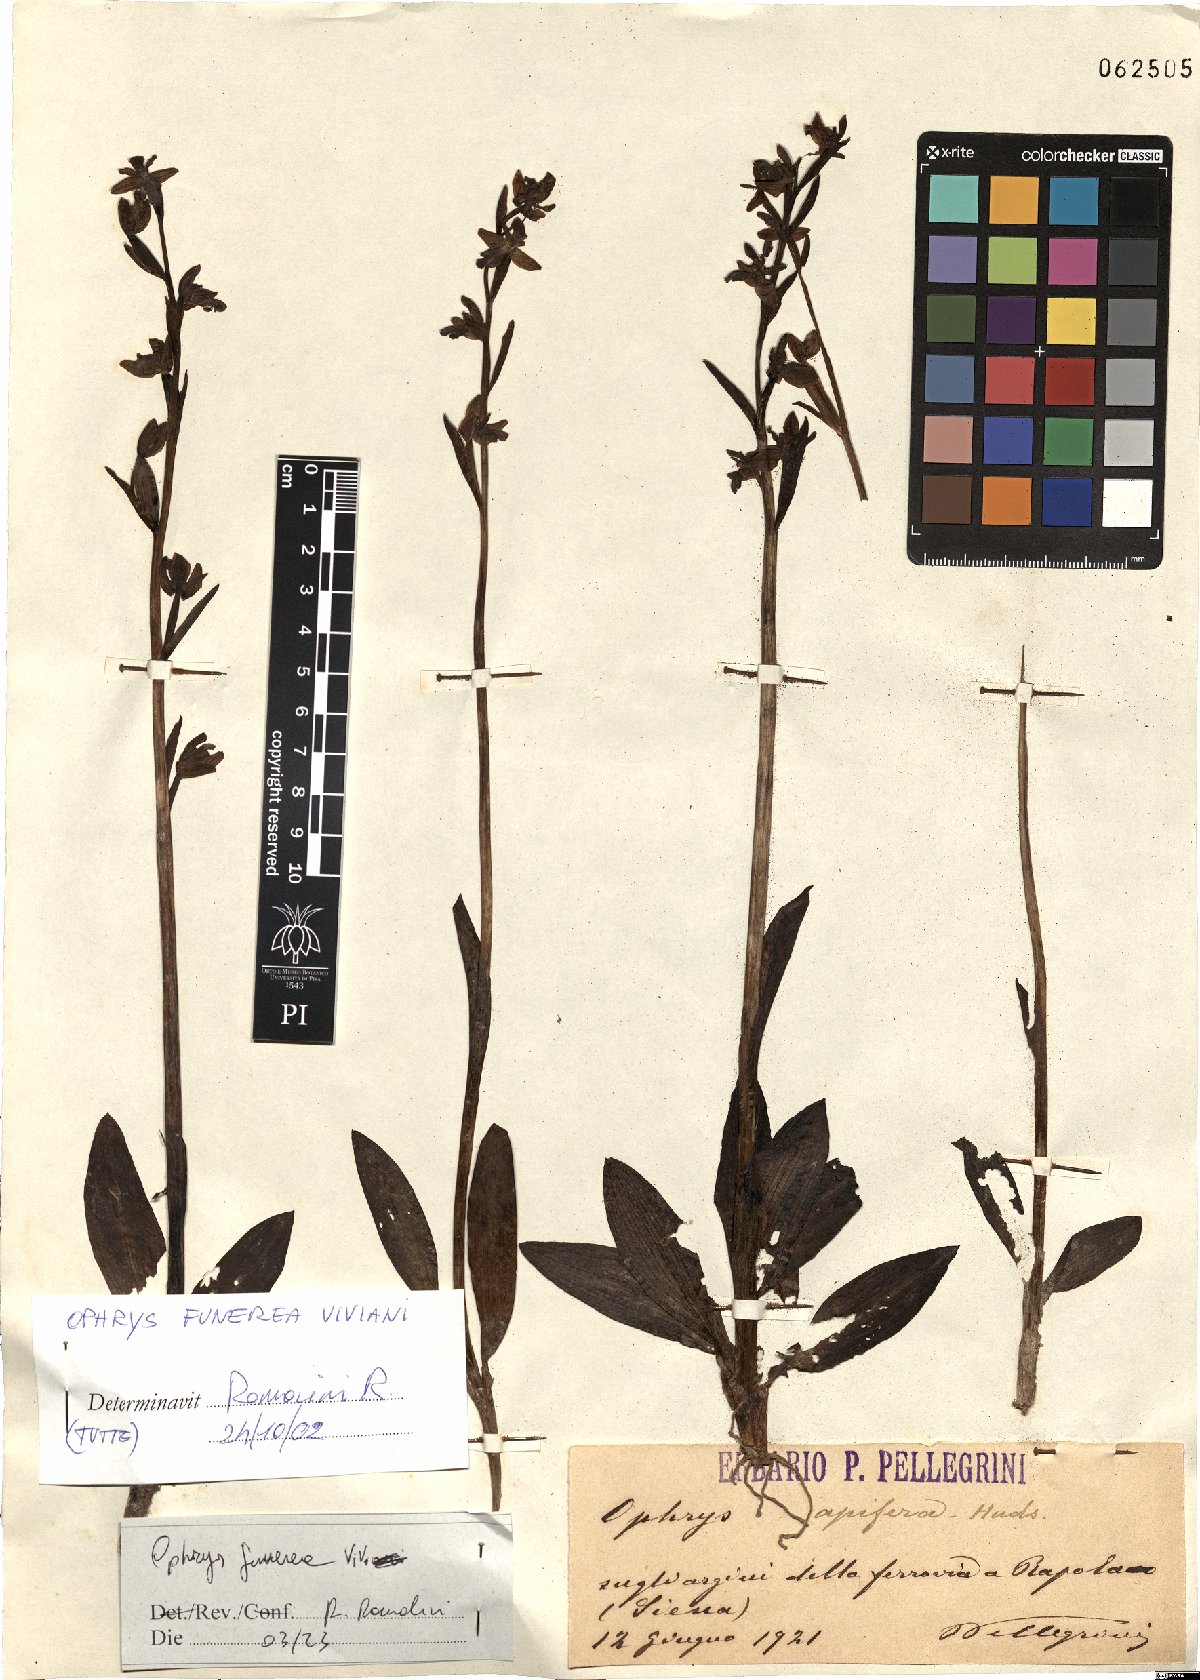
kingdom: Plantae
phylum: Tracheophyta
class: Liliopsida
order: Asparagales
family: Orchidaceae
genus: Ophrys
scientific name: Ophrys fusca
